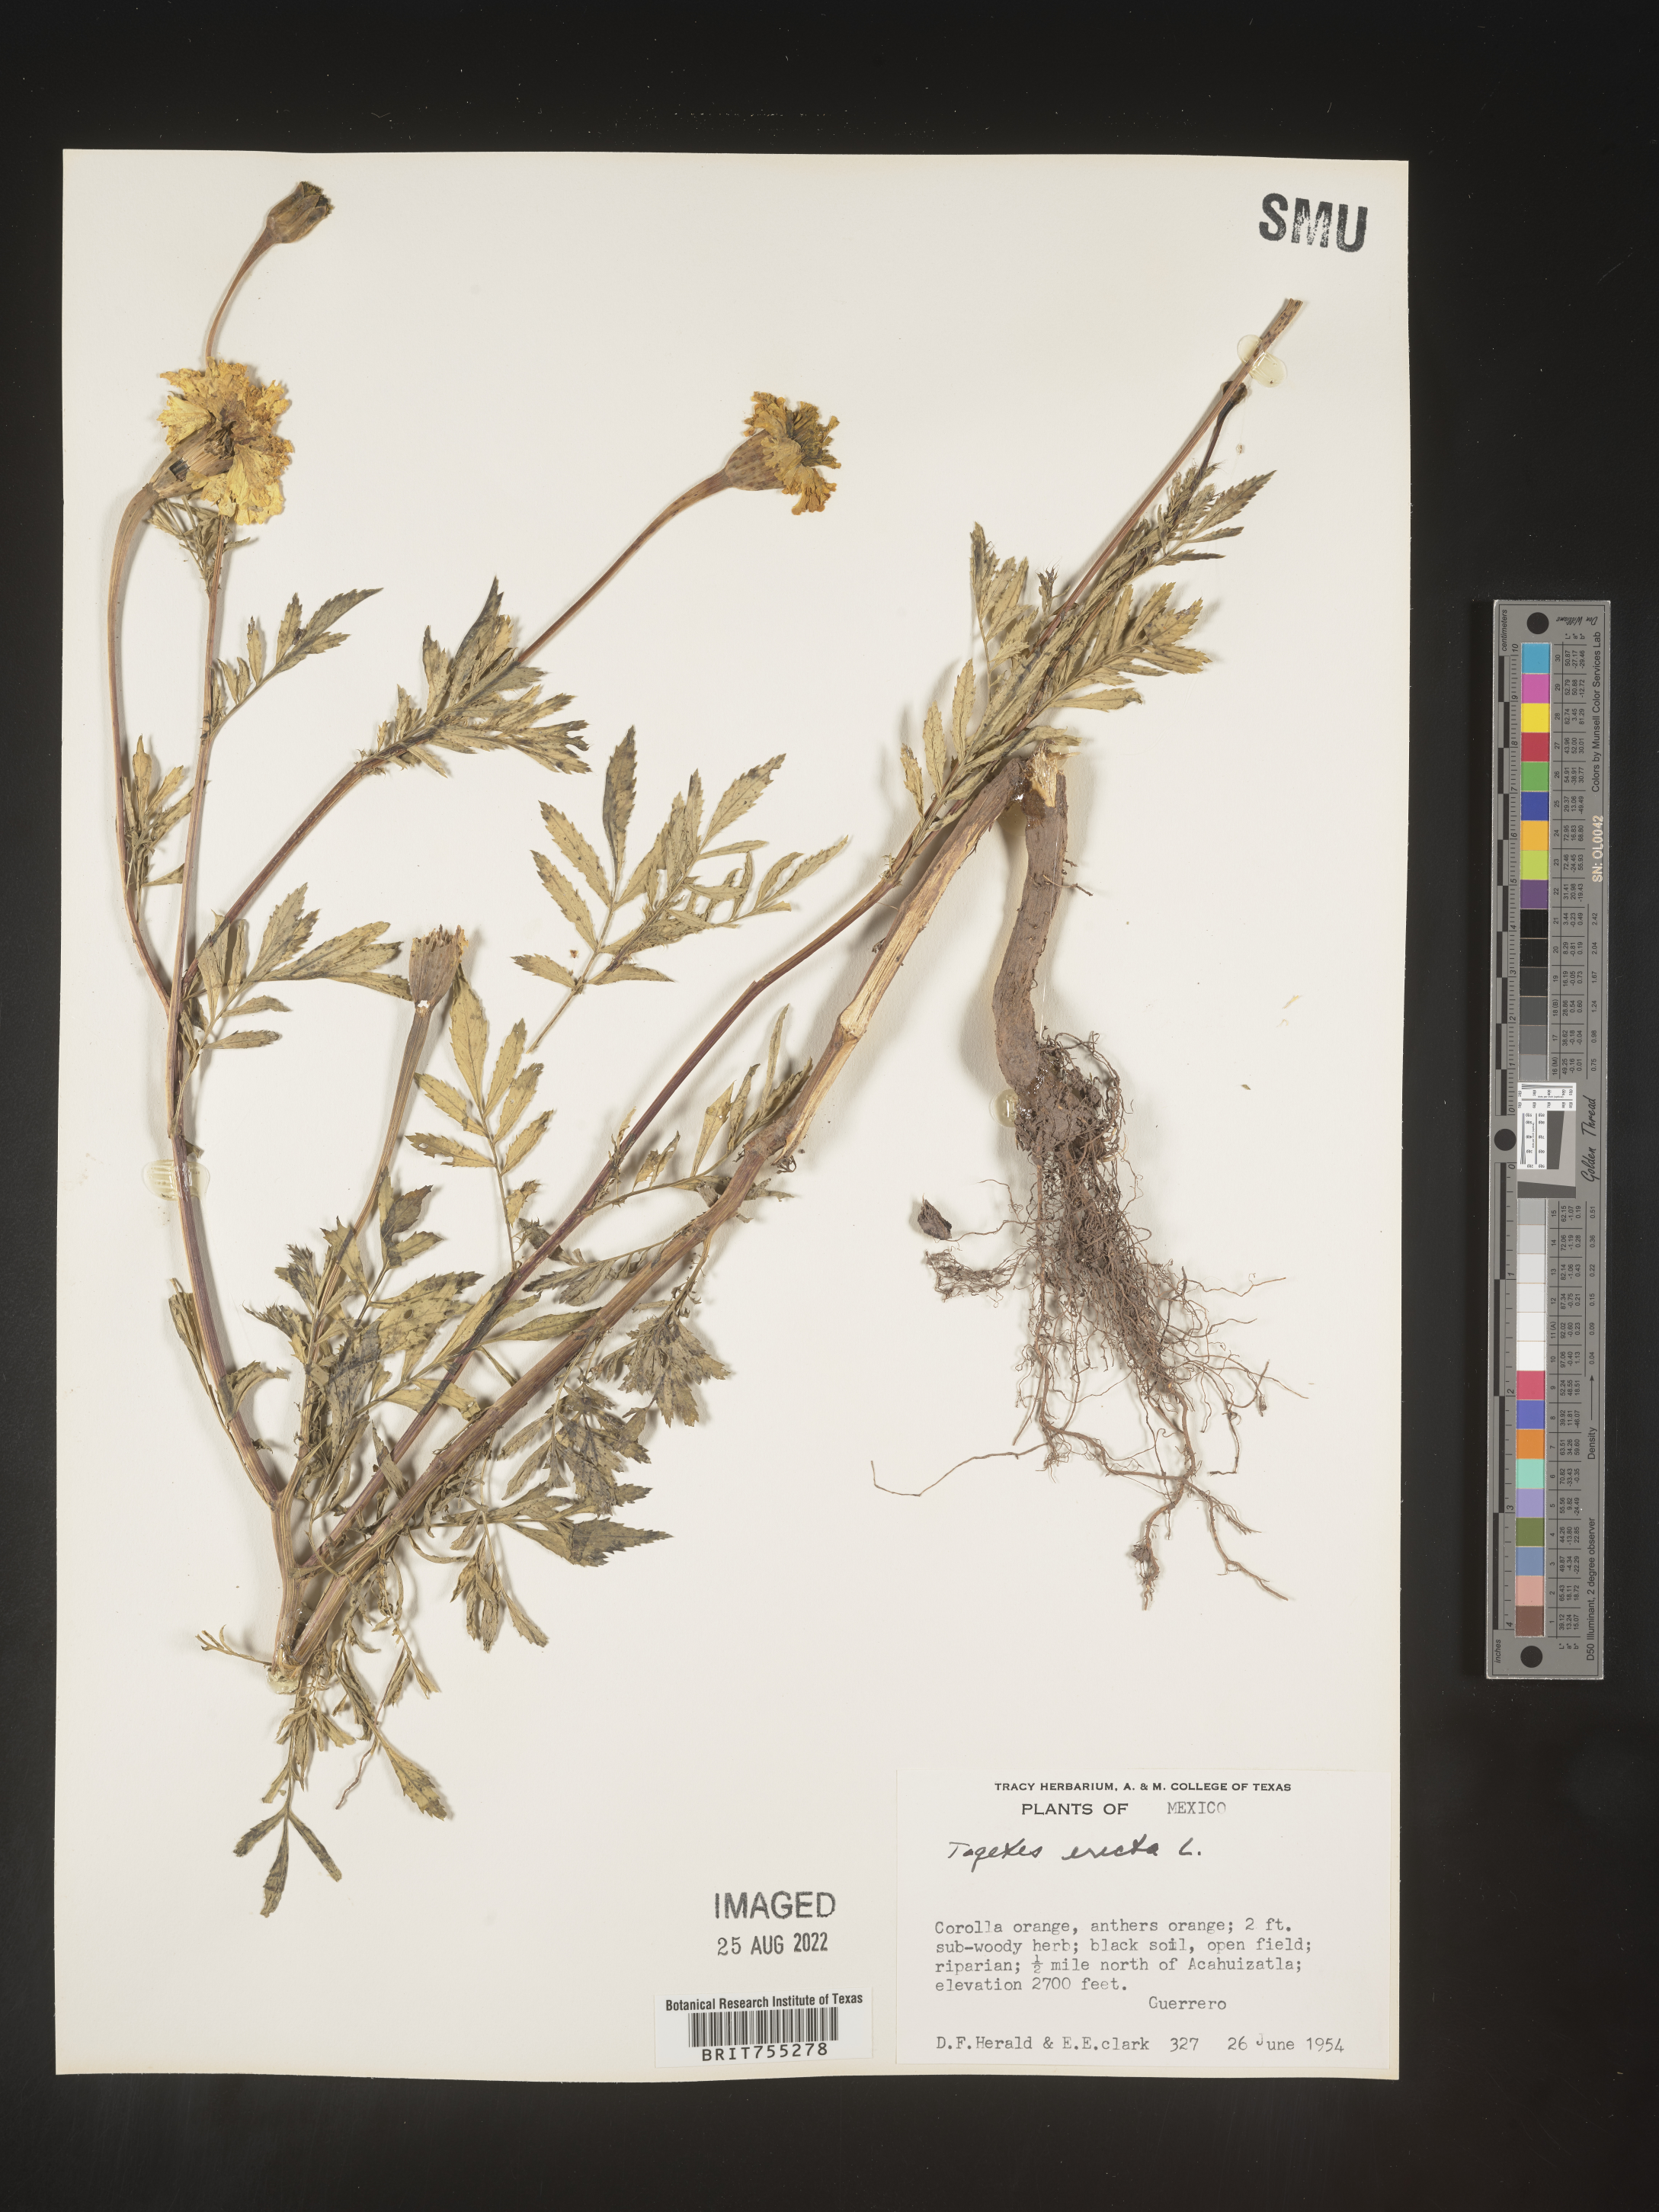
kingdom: Plantae
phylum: Tracheophyta
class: Magnoliopsida
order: Asterales
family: Asteraceae
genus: Tagetes
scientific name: Tagetes
